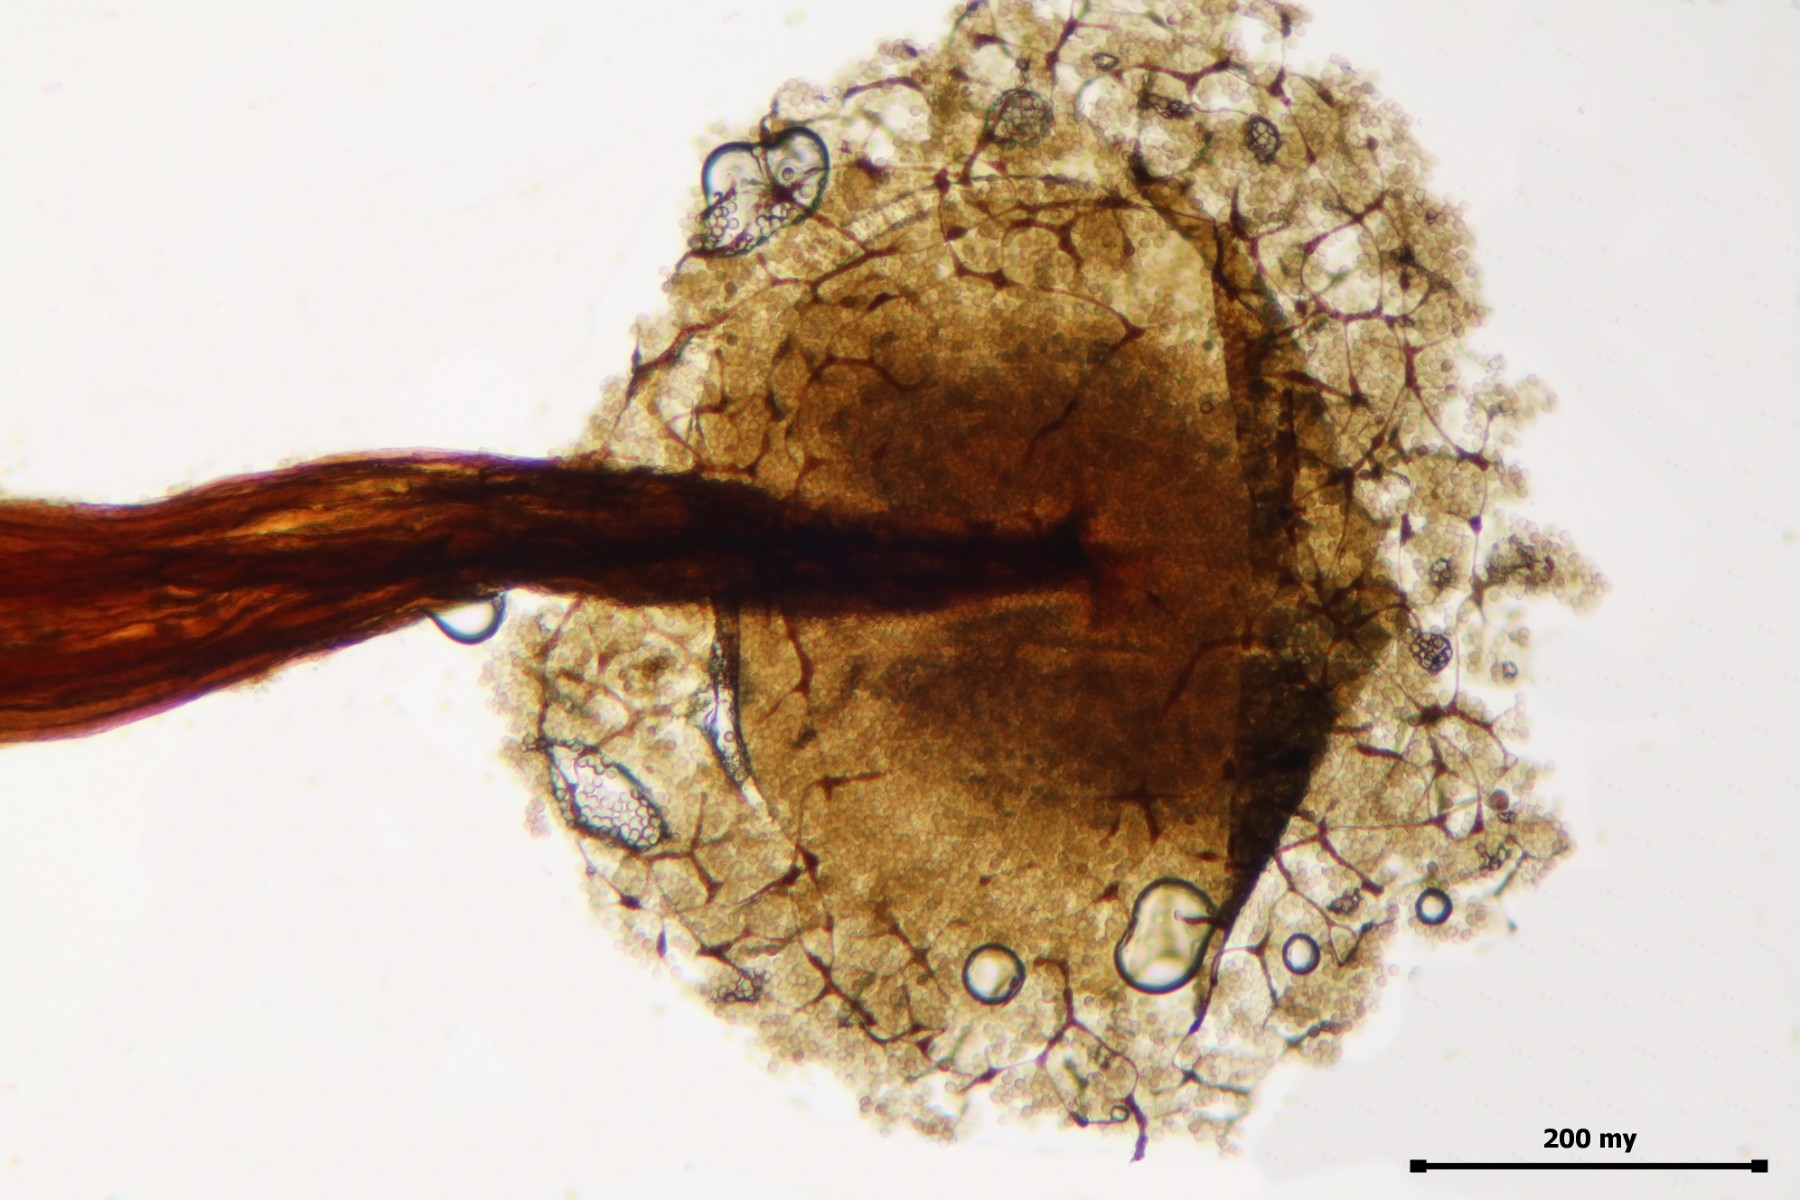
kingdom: Protozoa
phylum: Mycetozoa
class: Myxomycetes
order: Cribrariales
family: Cribrariaceae
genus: Cribraria
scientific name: Cribraria aurantiaca
